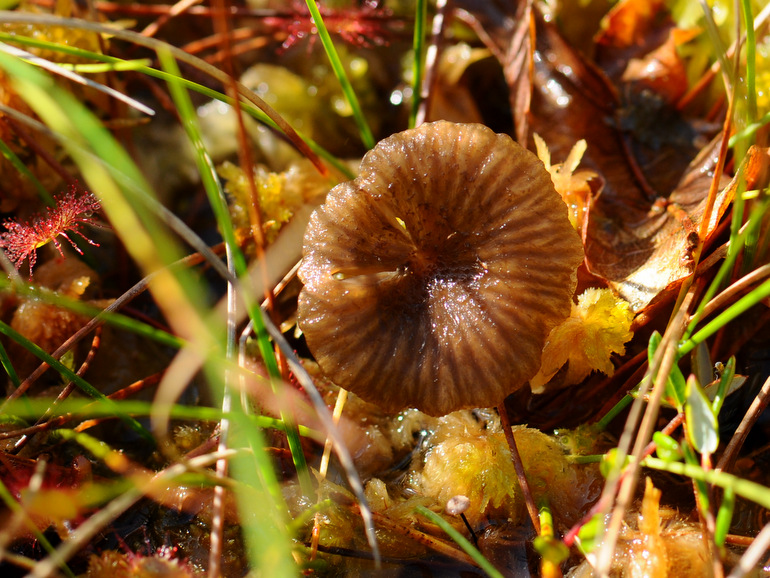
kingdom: Fungi
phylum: Basidiomycota
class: Agaricomycetes
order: Agaricales
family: Hygrophoraceae
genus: Arrhenia
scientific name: Arrhenia gerardiana
